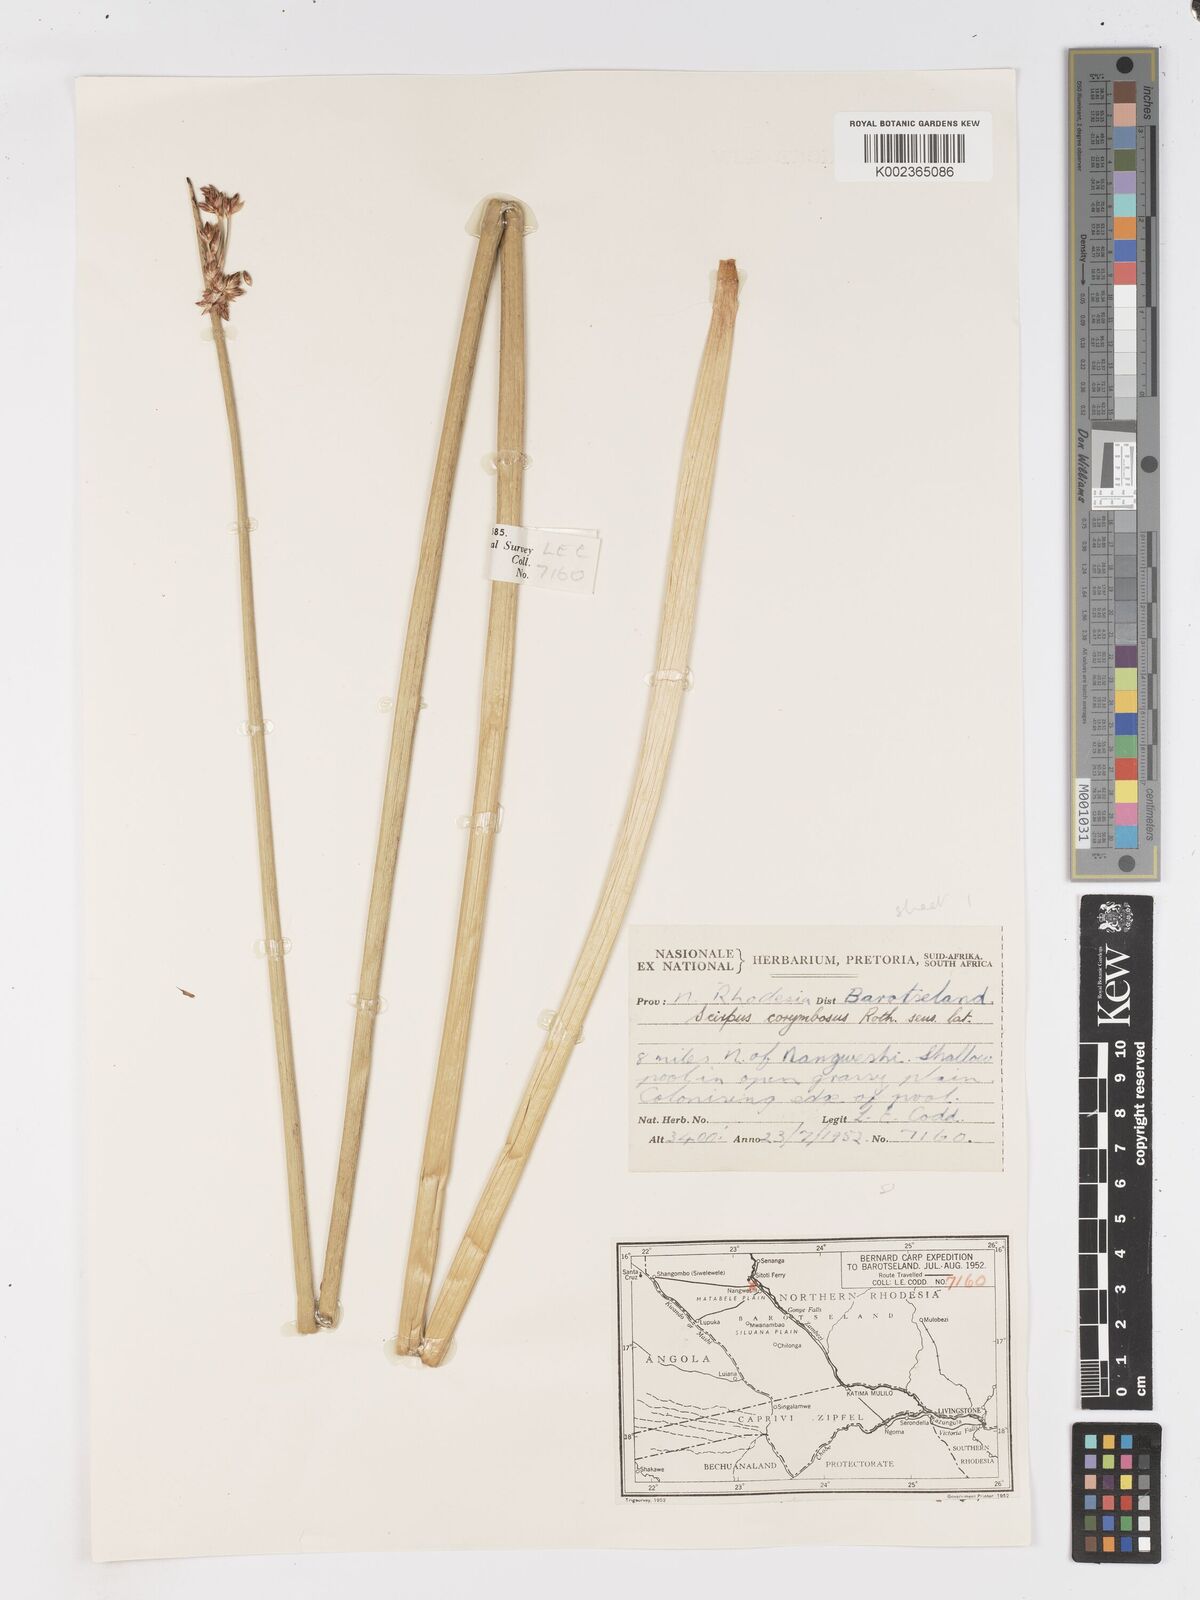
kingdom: Plantae
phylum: Tracheophyta
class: Liliopsida
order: Poales
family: Cyperaceae
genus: Schoenoplectiella
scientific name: Schoenoplectiella corymbosa
